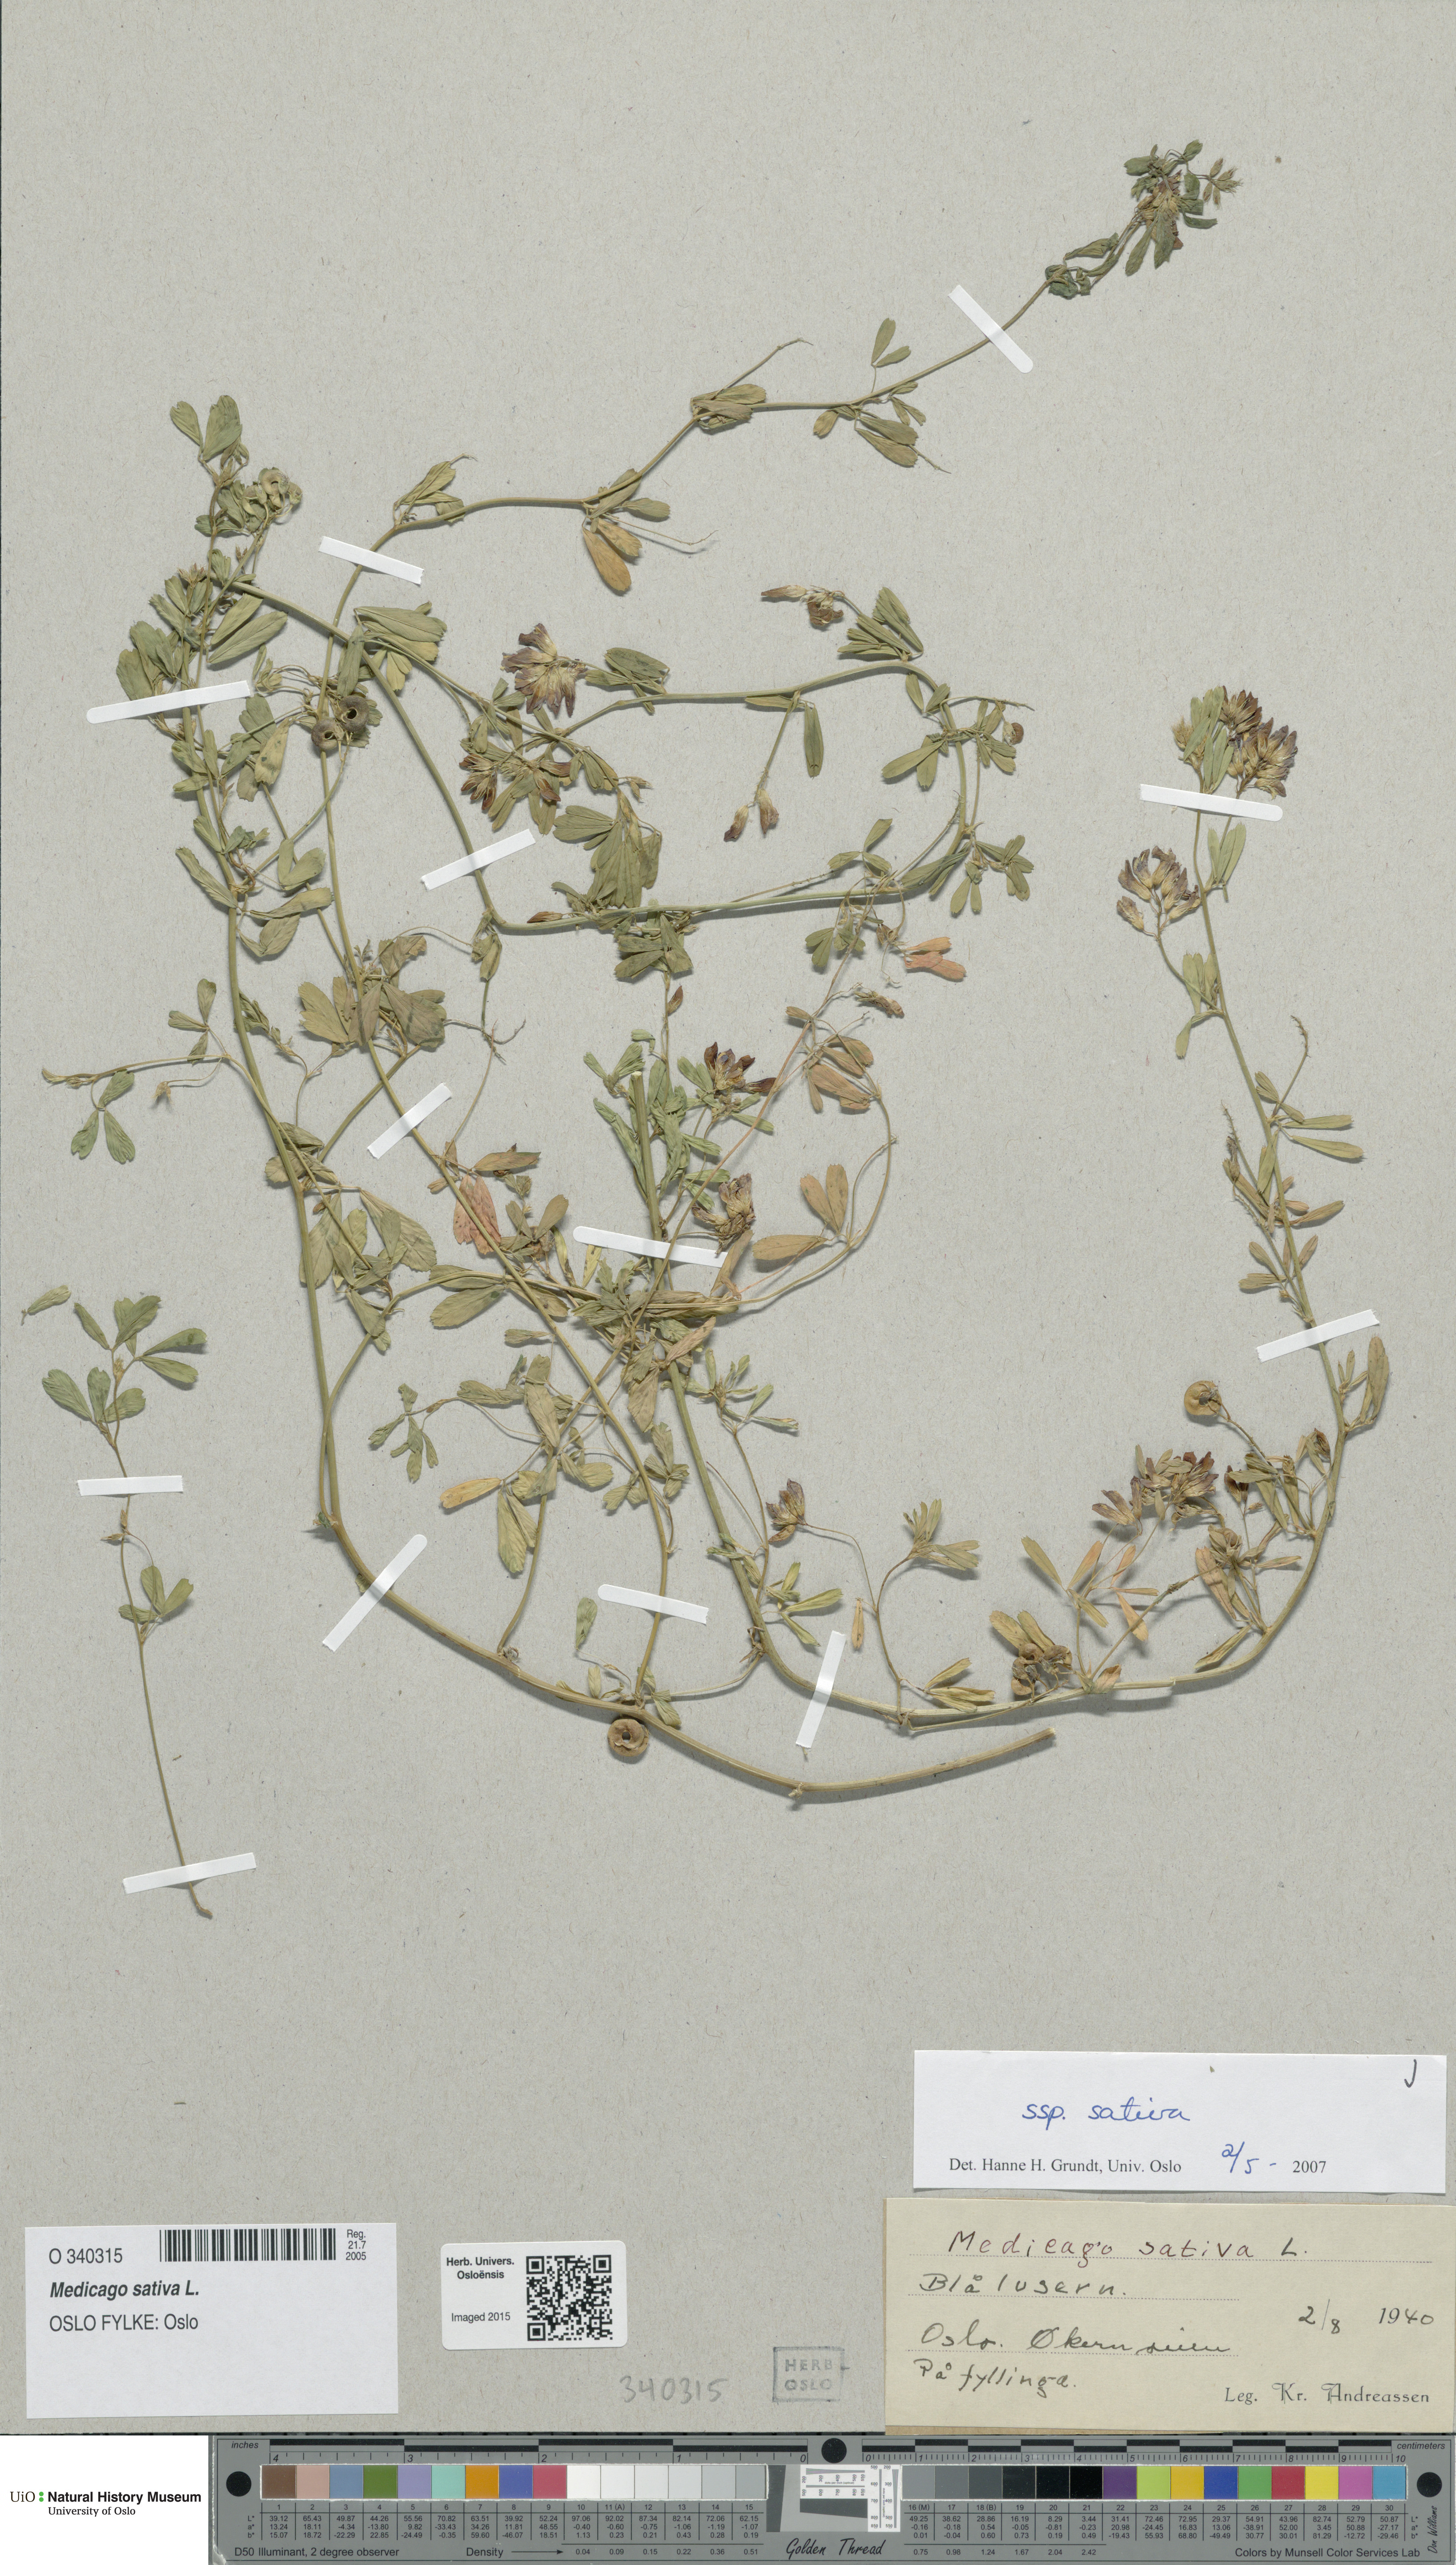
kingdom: Plantae
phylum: Tracheophyta
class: Magnoliopsida
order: Fabales
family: Fabaceae
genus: Medicago
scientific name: Medicago sativa
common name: Alfalfa
